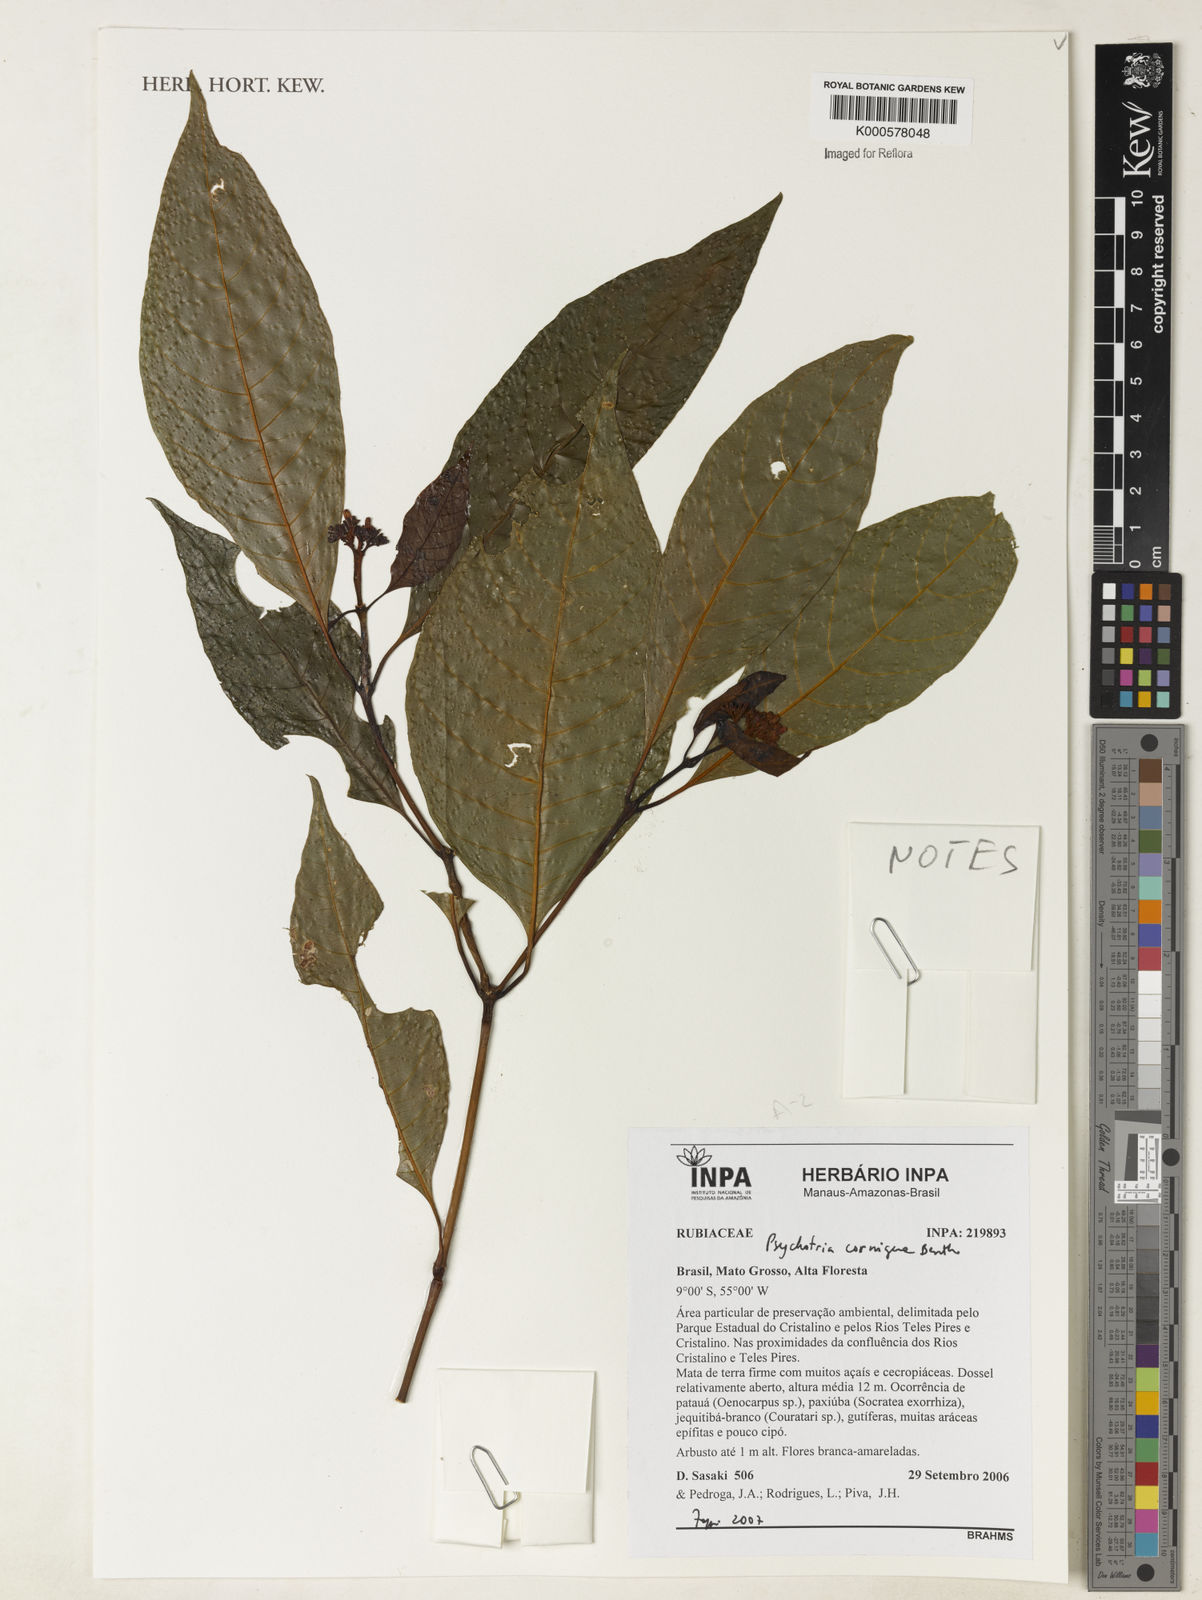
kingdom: Plantae
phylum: Tracheophyta
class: Magnoliopsida
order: Gentianales
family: Rubiaceae
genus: Palicourea
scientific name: Palicourea subcuspidata
